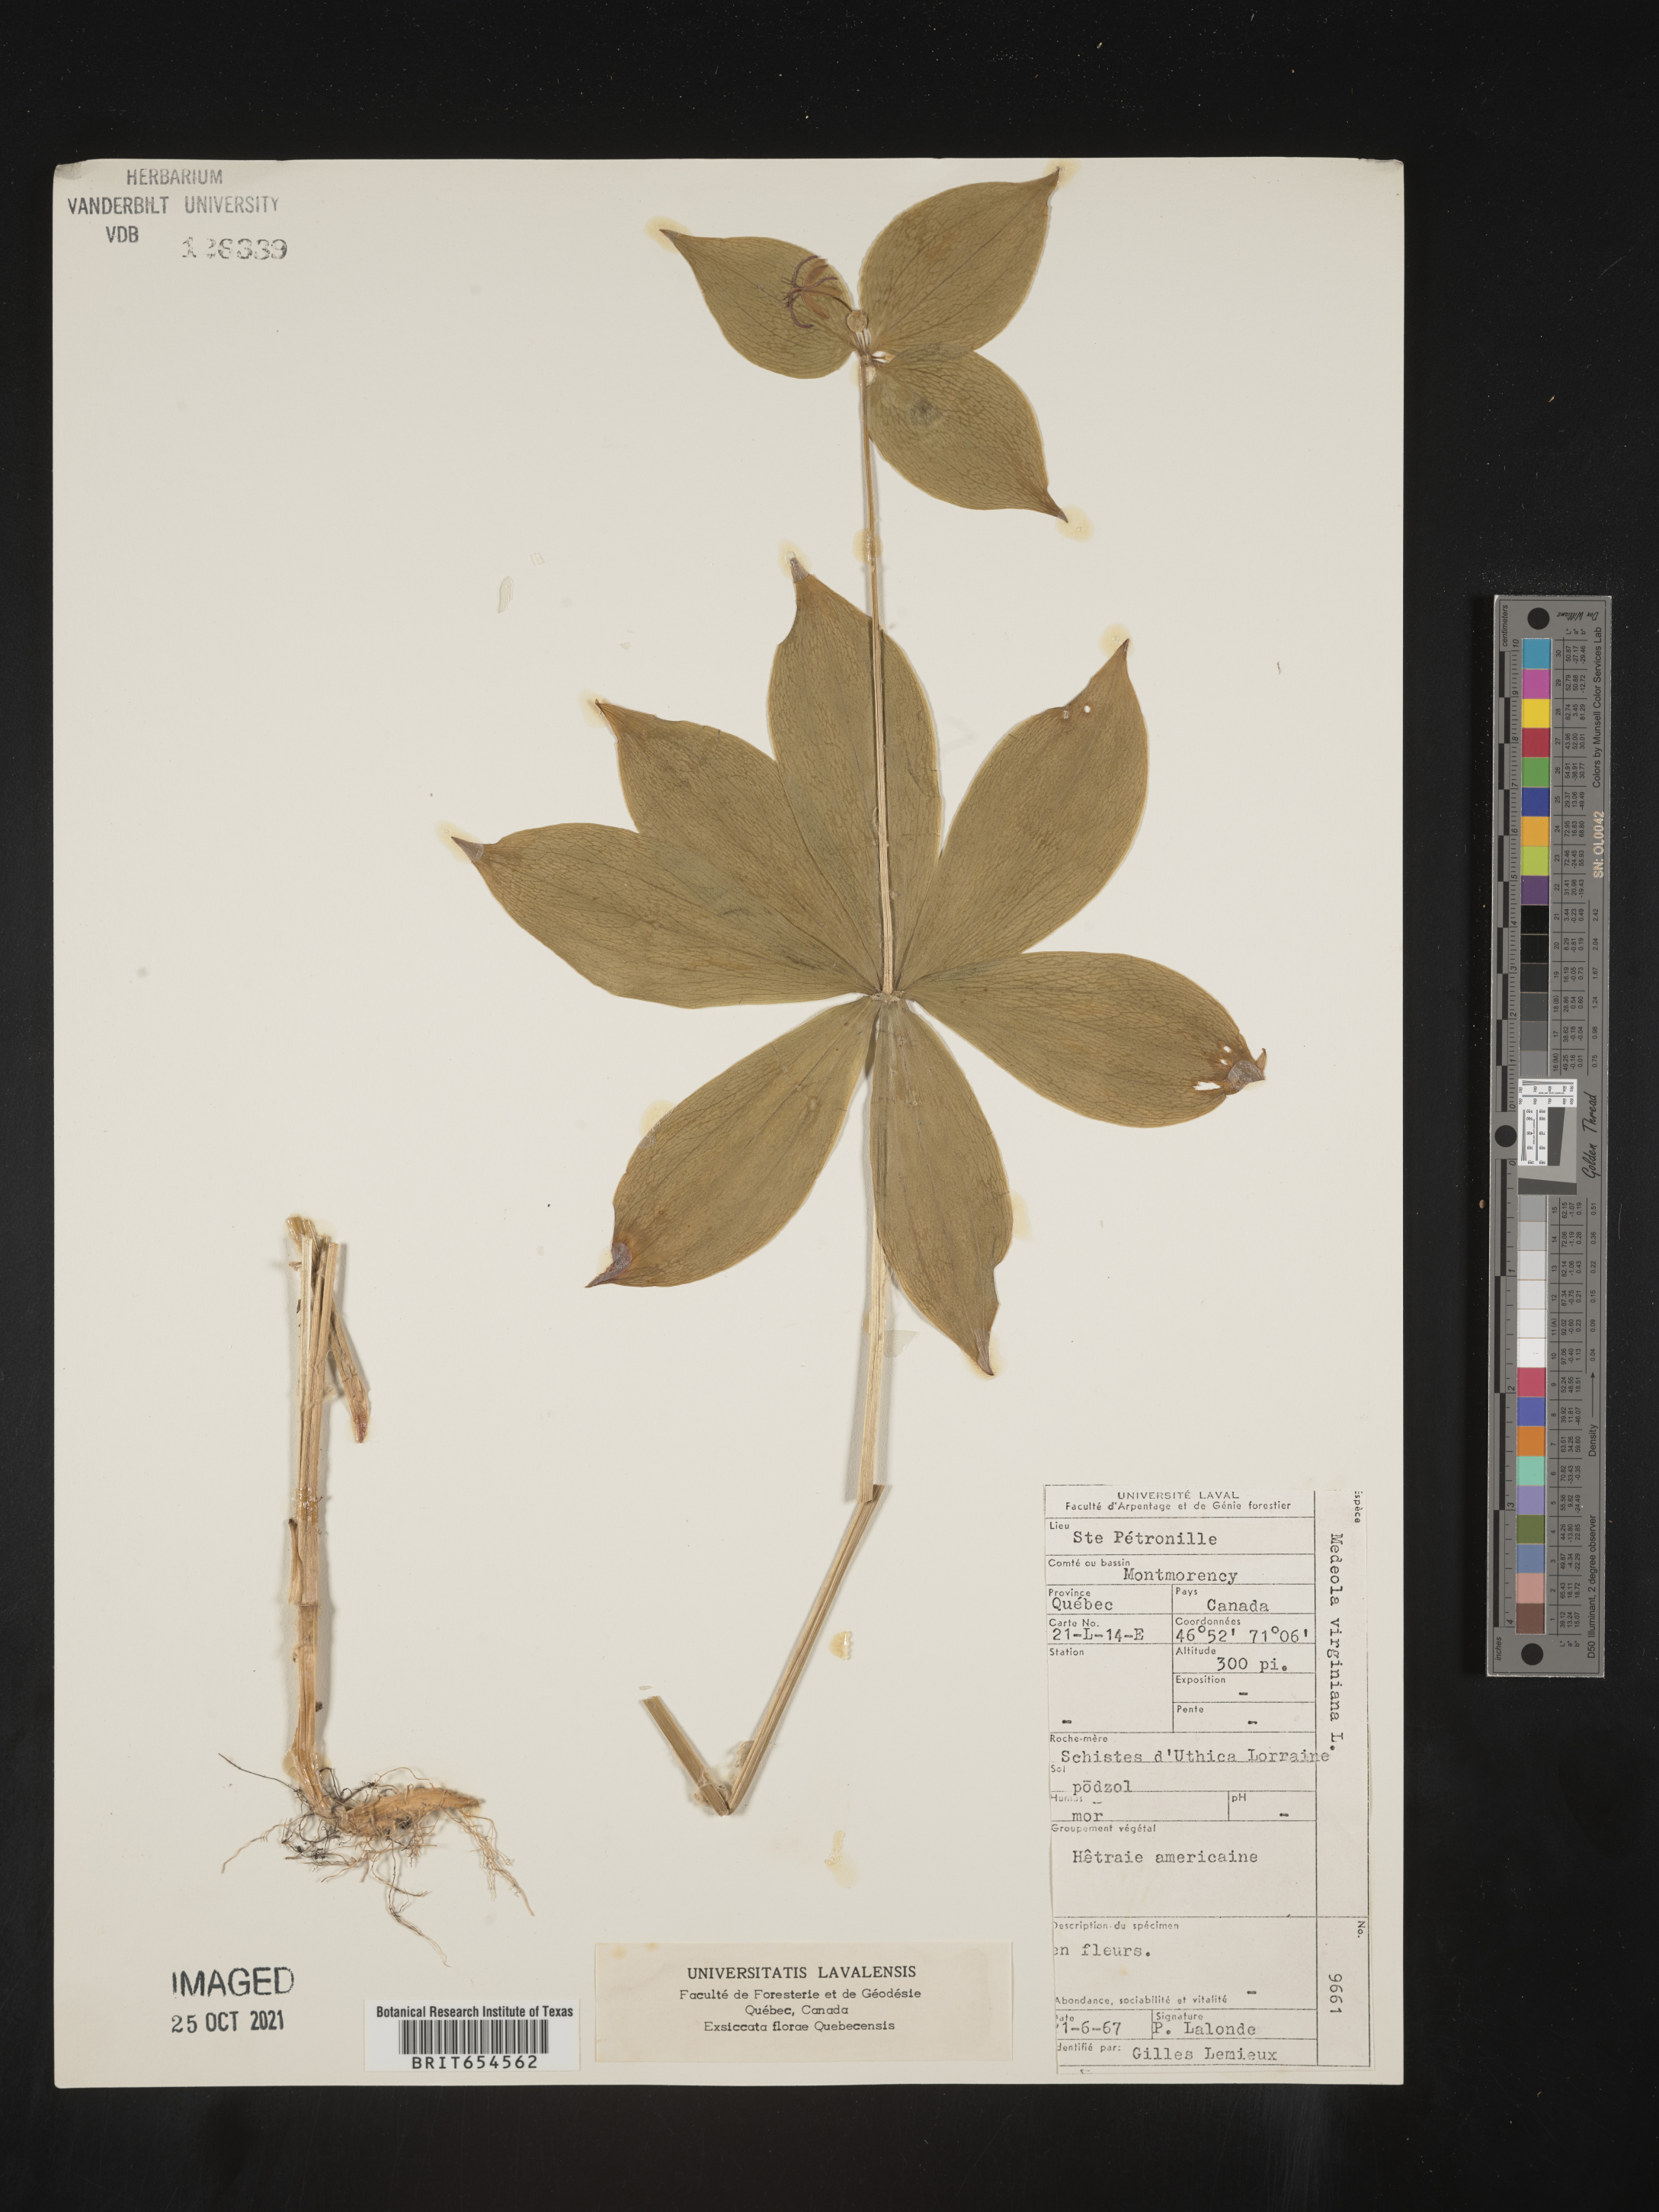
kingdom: Plantae
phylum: Tracheophyta
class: Liliopsida
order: Liliales
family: Liliaceae
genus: Medeola
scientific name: Medeola
